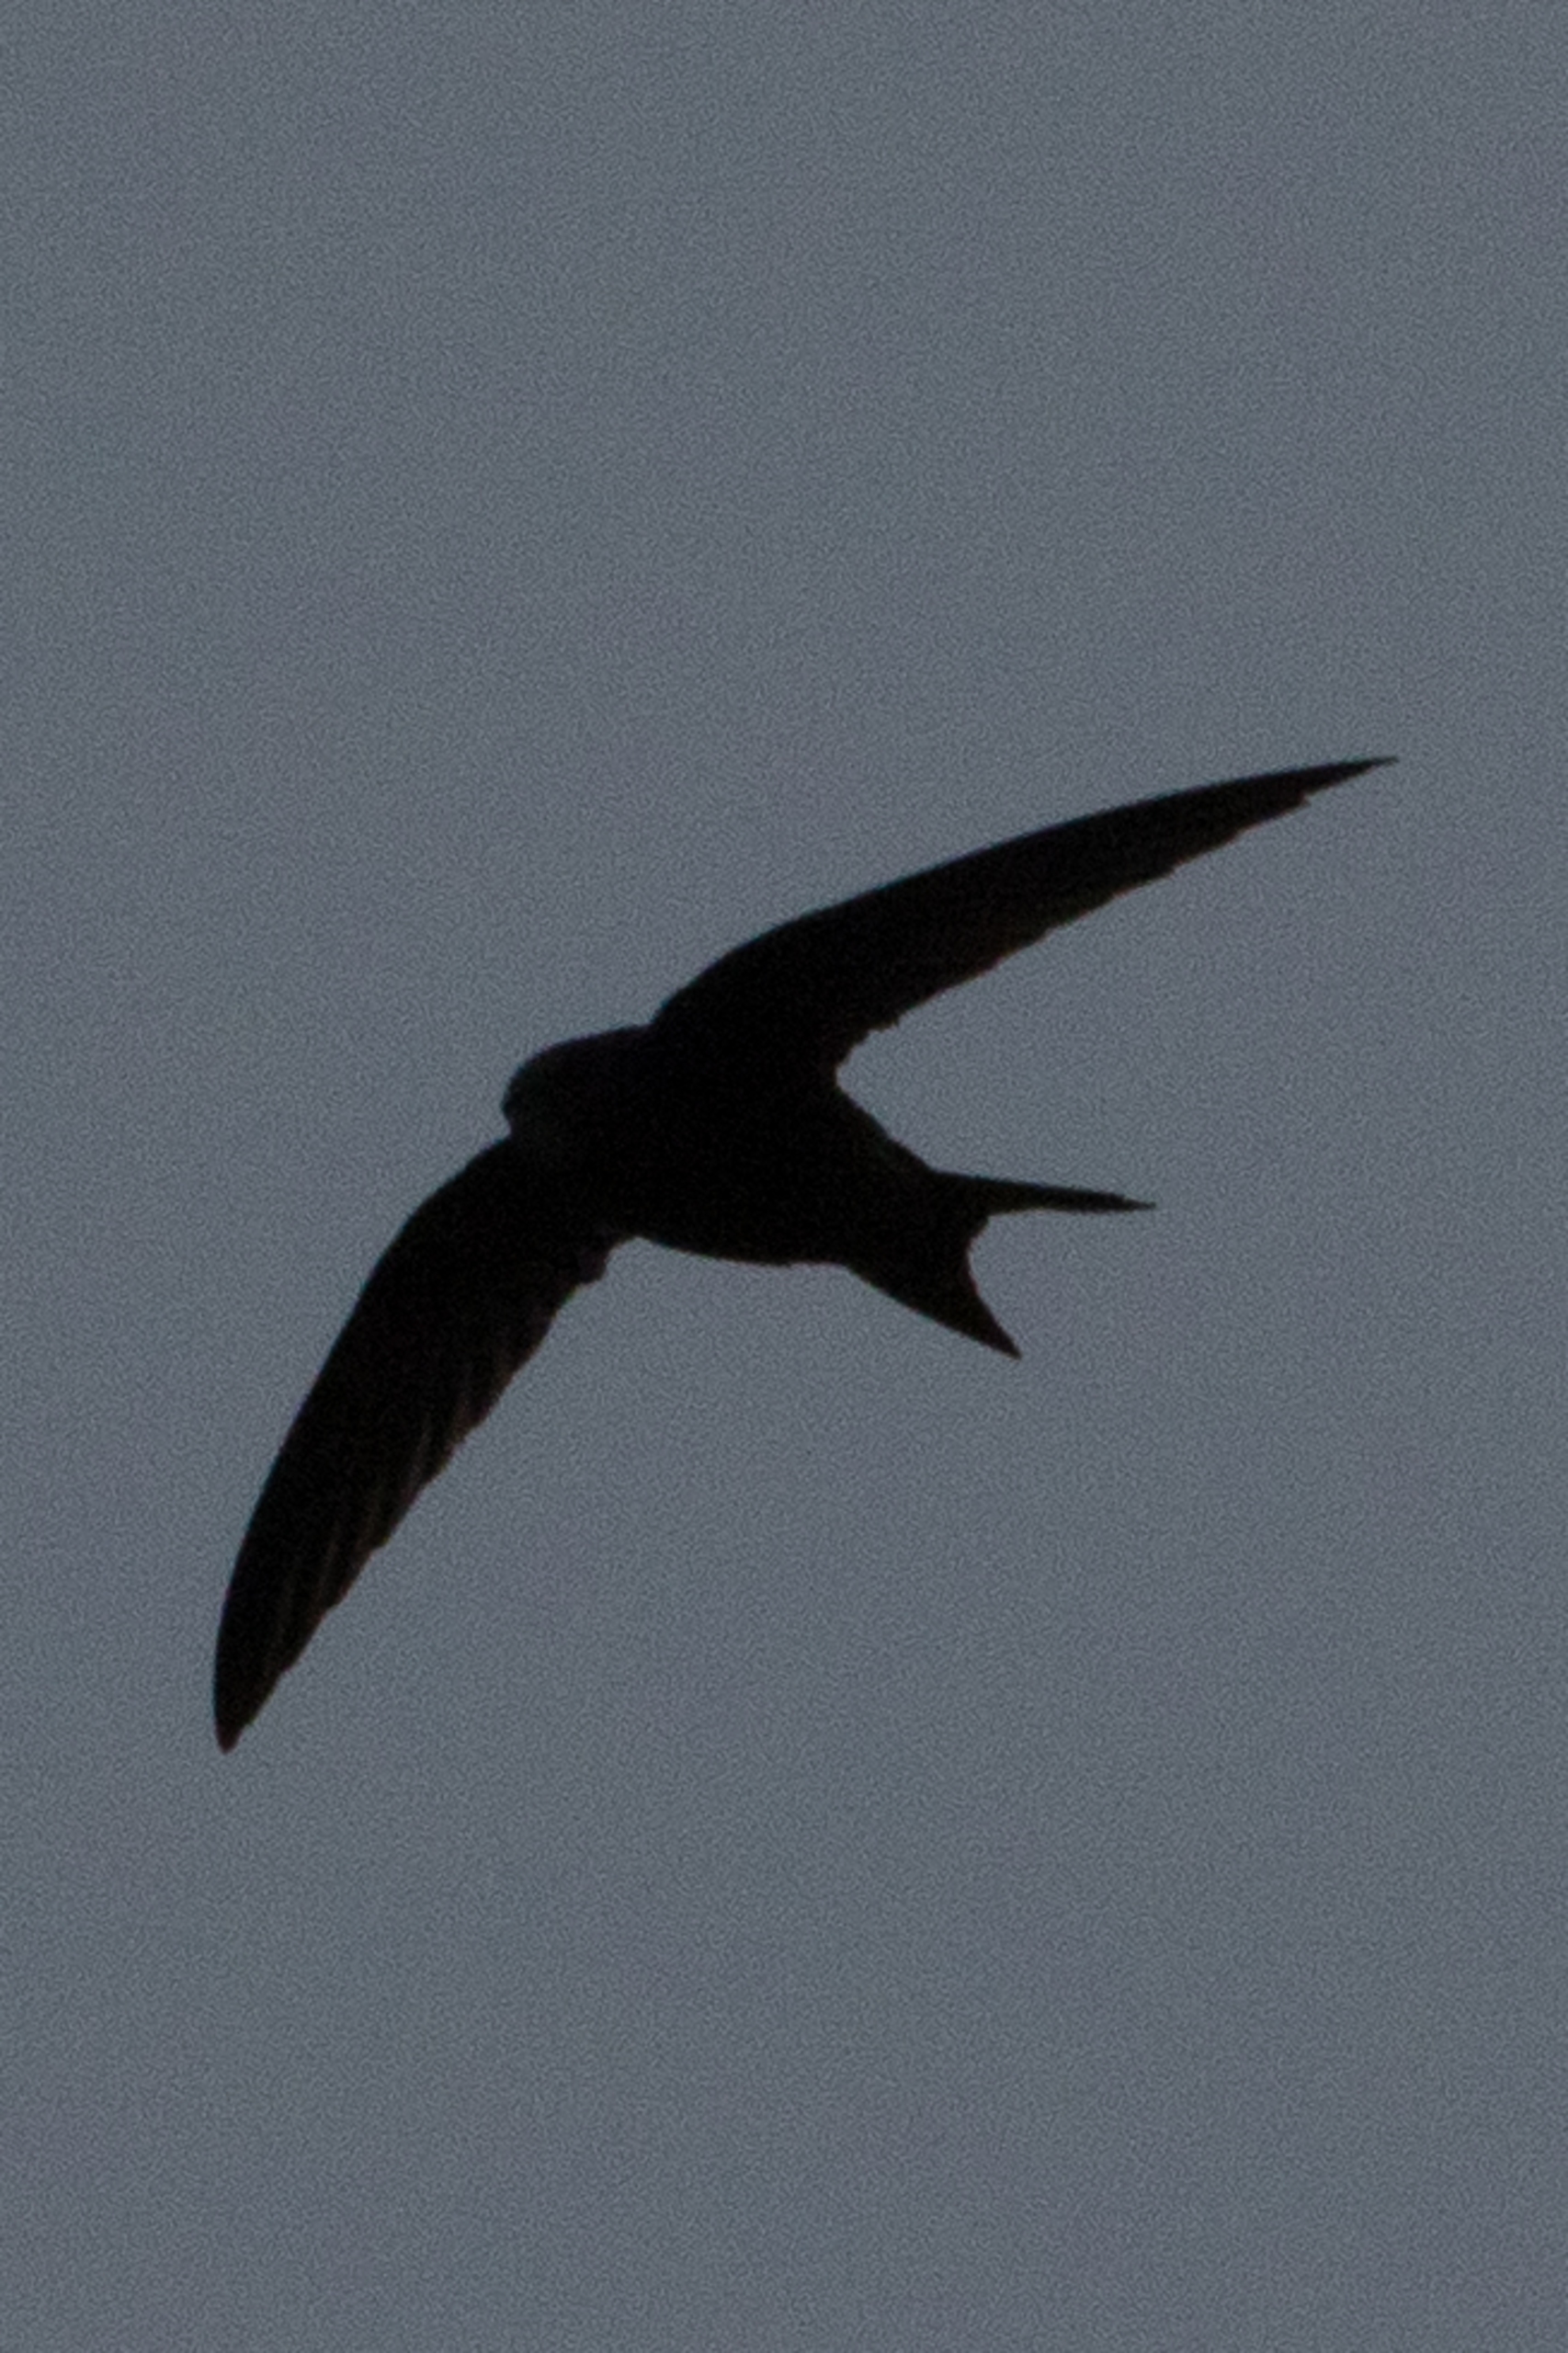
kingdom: Animalia
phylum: Chordata
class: Aves
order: Apodiformes
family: Apodidae
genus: Apus
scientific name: Apus apus
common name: Mursejler
